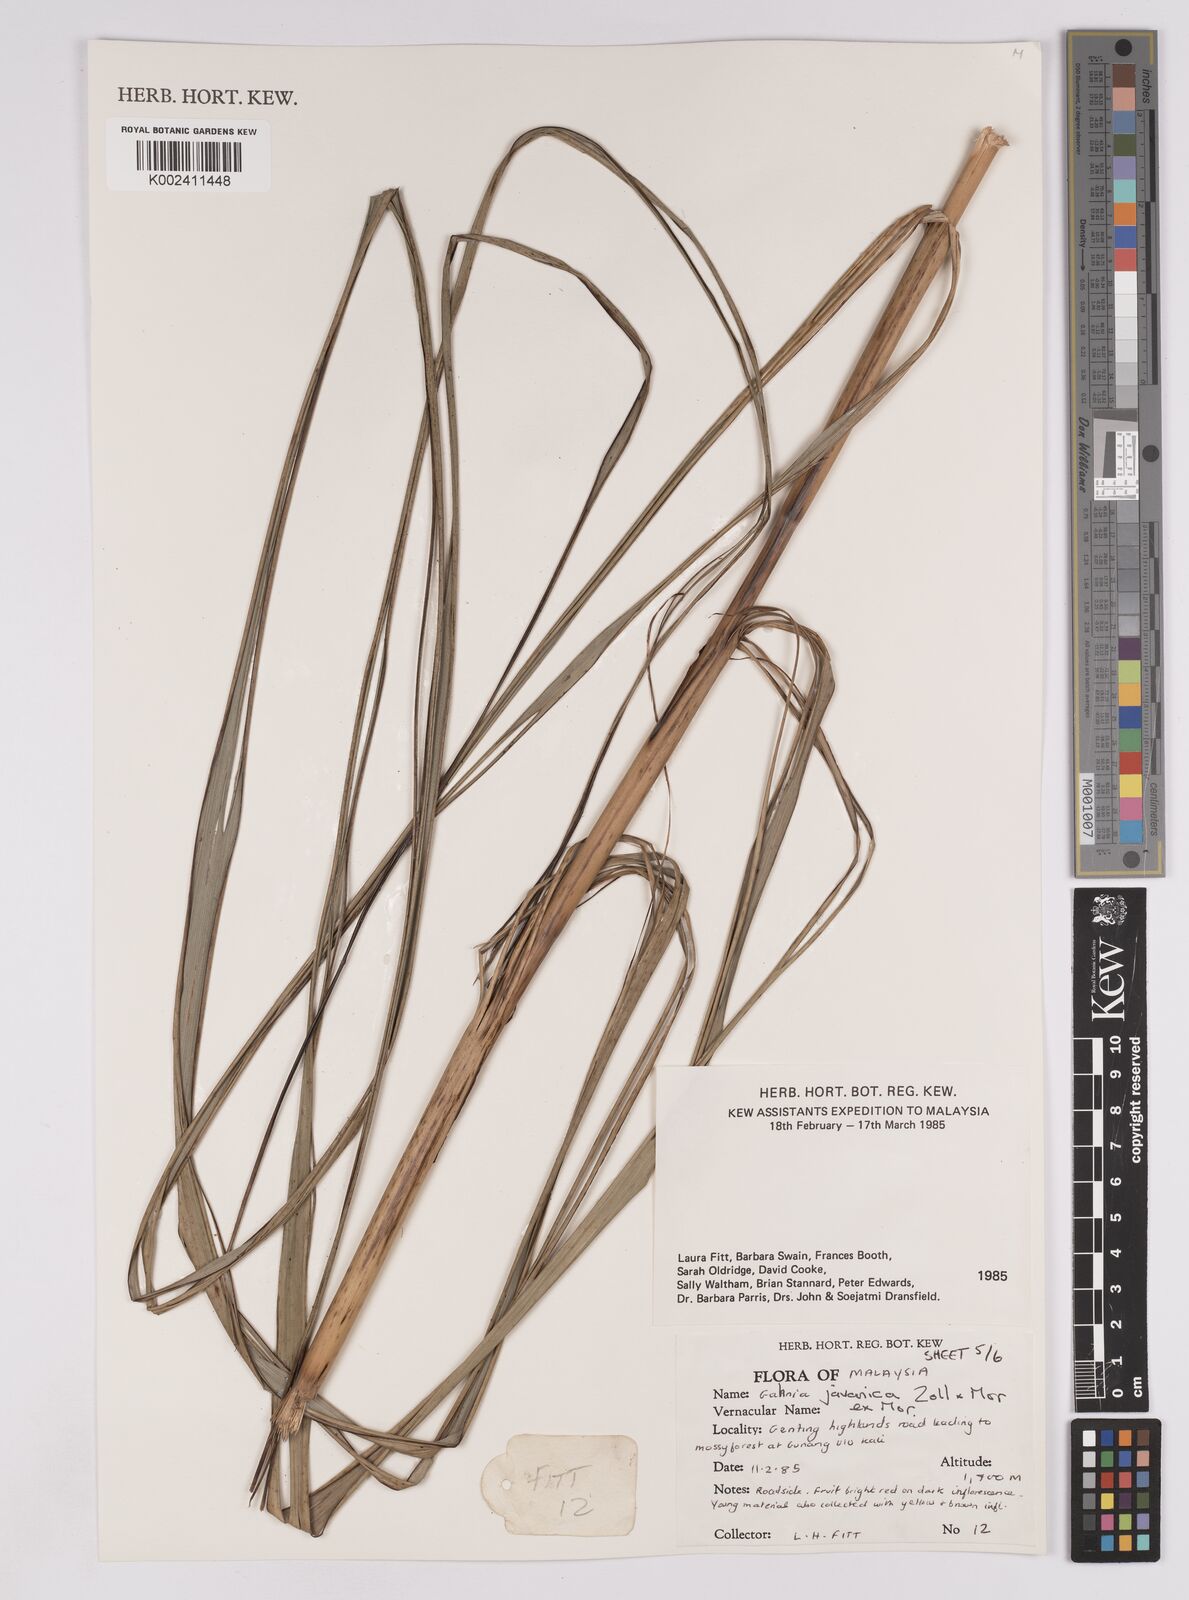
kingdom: Plantae
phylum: Tracheophyta
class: Liliopsida
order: Poales
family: Cyperaceae
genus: Gahnia
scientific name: Gahnia javanica
